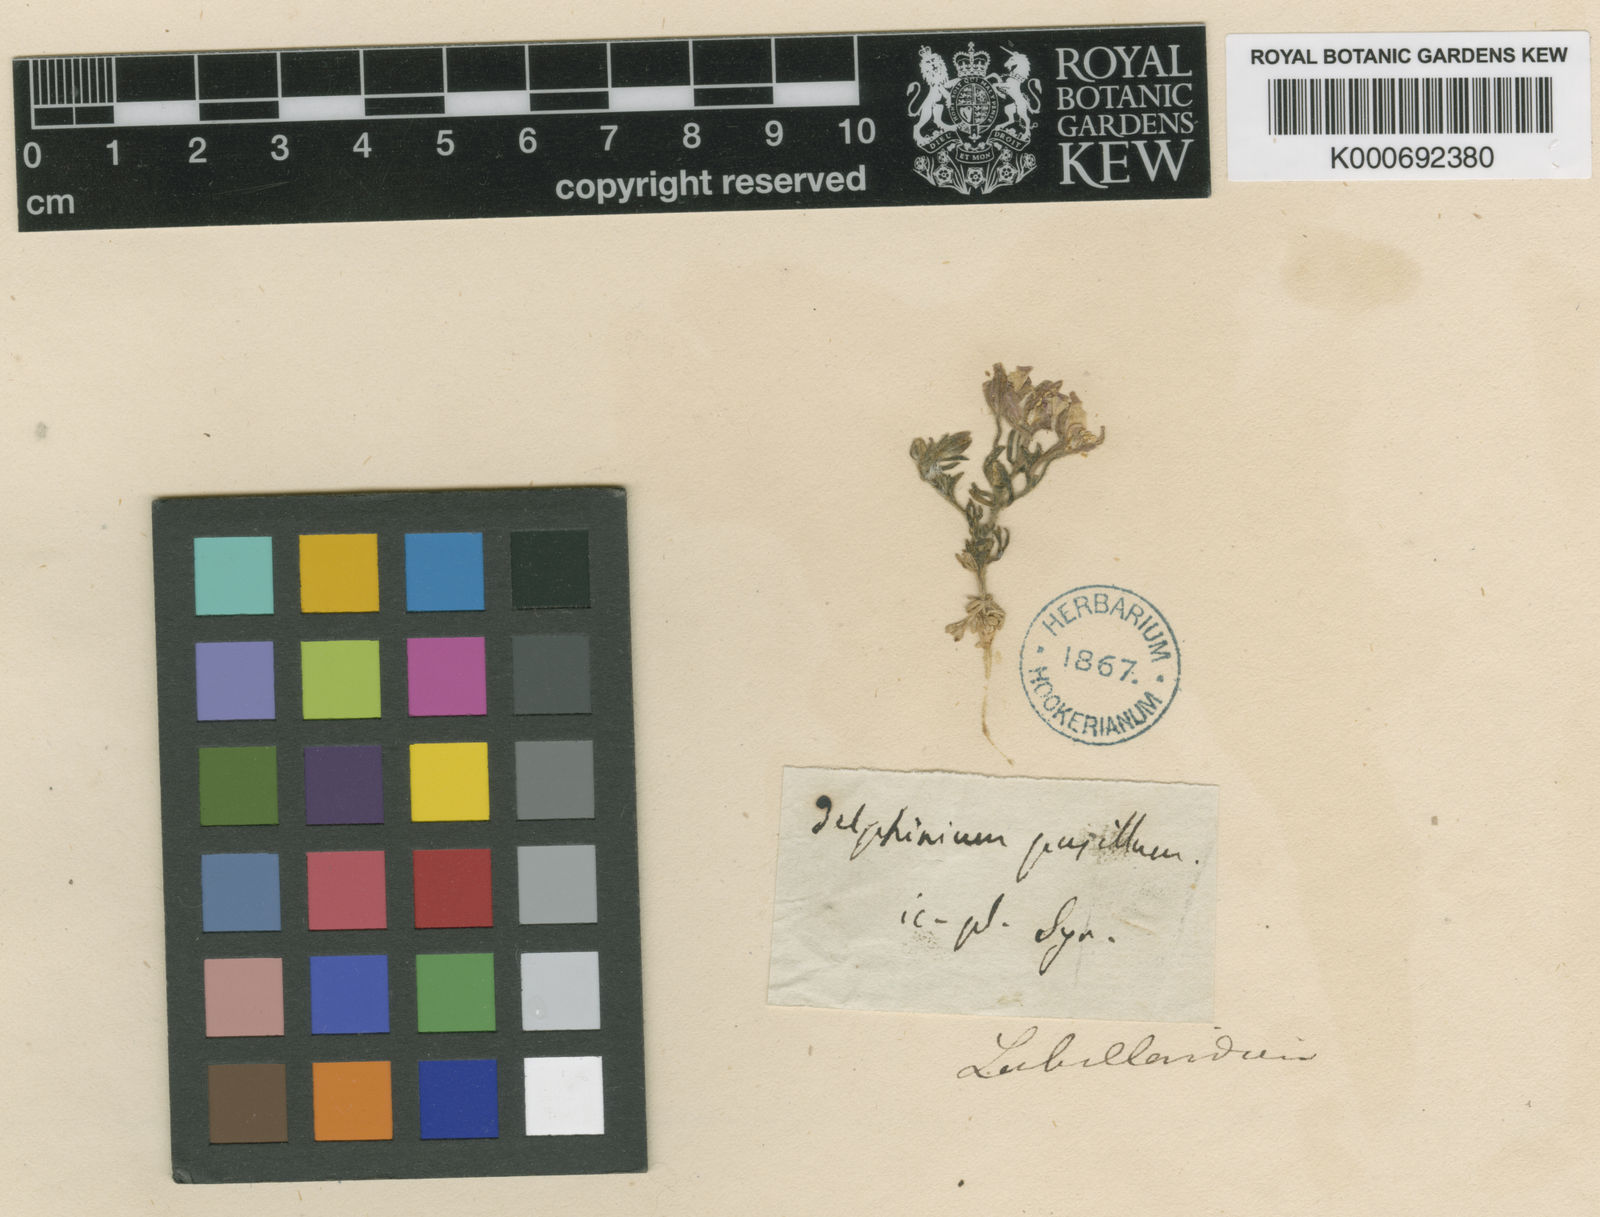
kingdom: Plantae
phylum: Tracheophyta
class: Magnoliopsida
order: Ranunculales
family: Ranunculaceae
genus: Delphinium
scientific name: Delphinium
